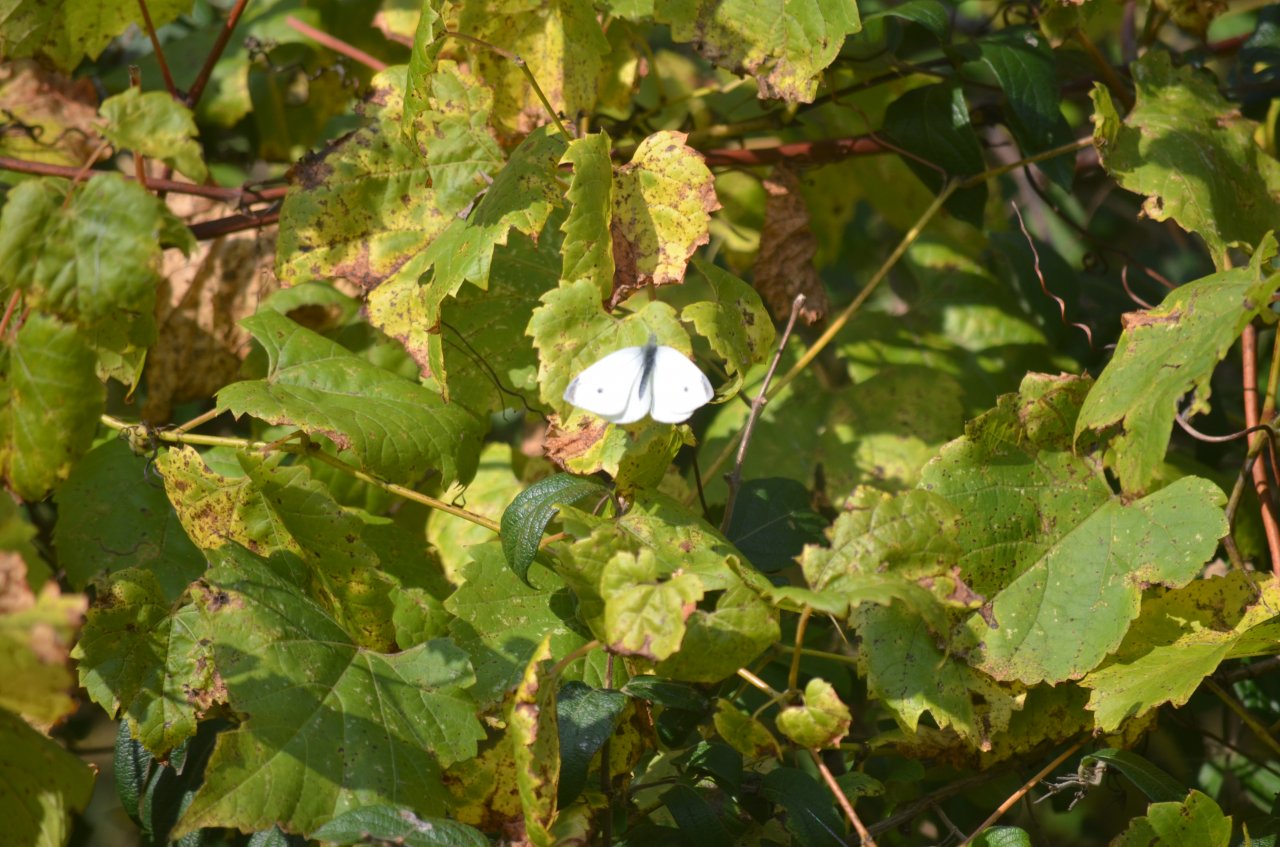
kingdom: Animalia
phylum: Arthropoda
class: Insecta
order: Lepidoptera
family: Pieridae
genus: Pieris
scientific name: Pieris rapae
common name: Cabbage White
